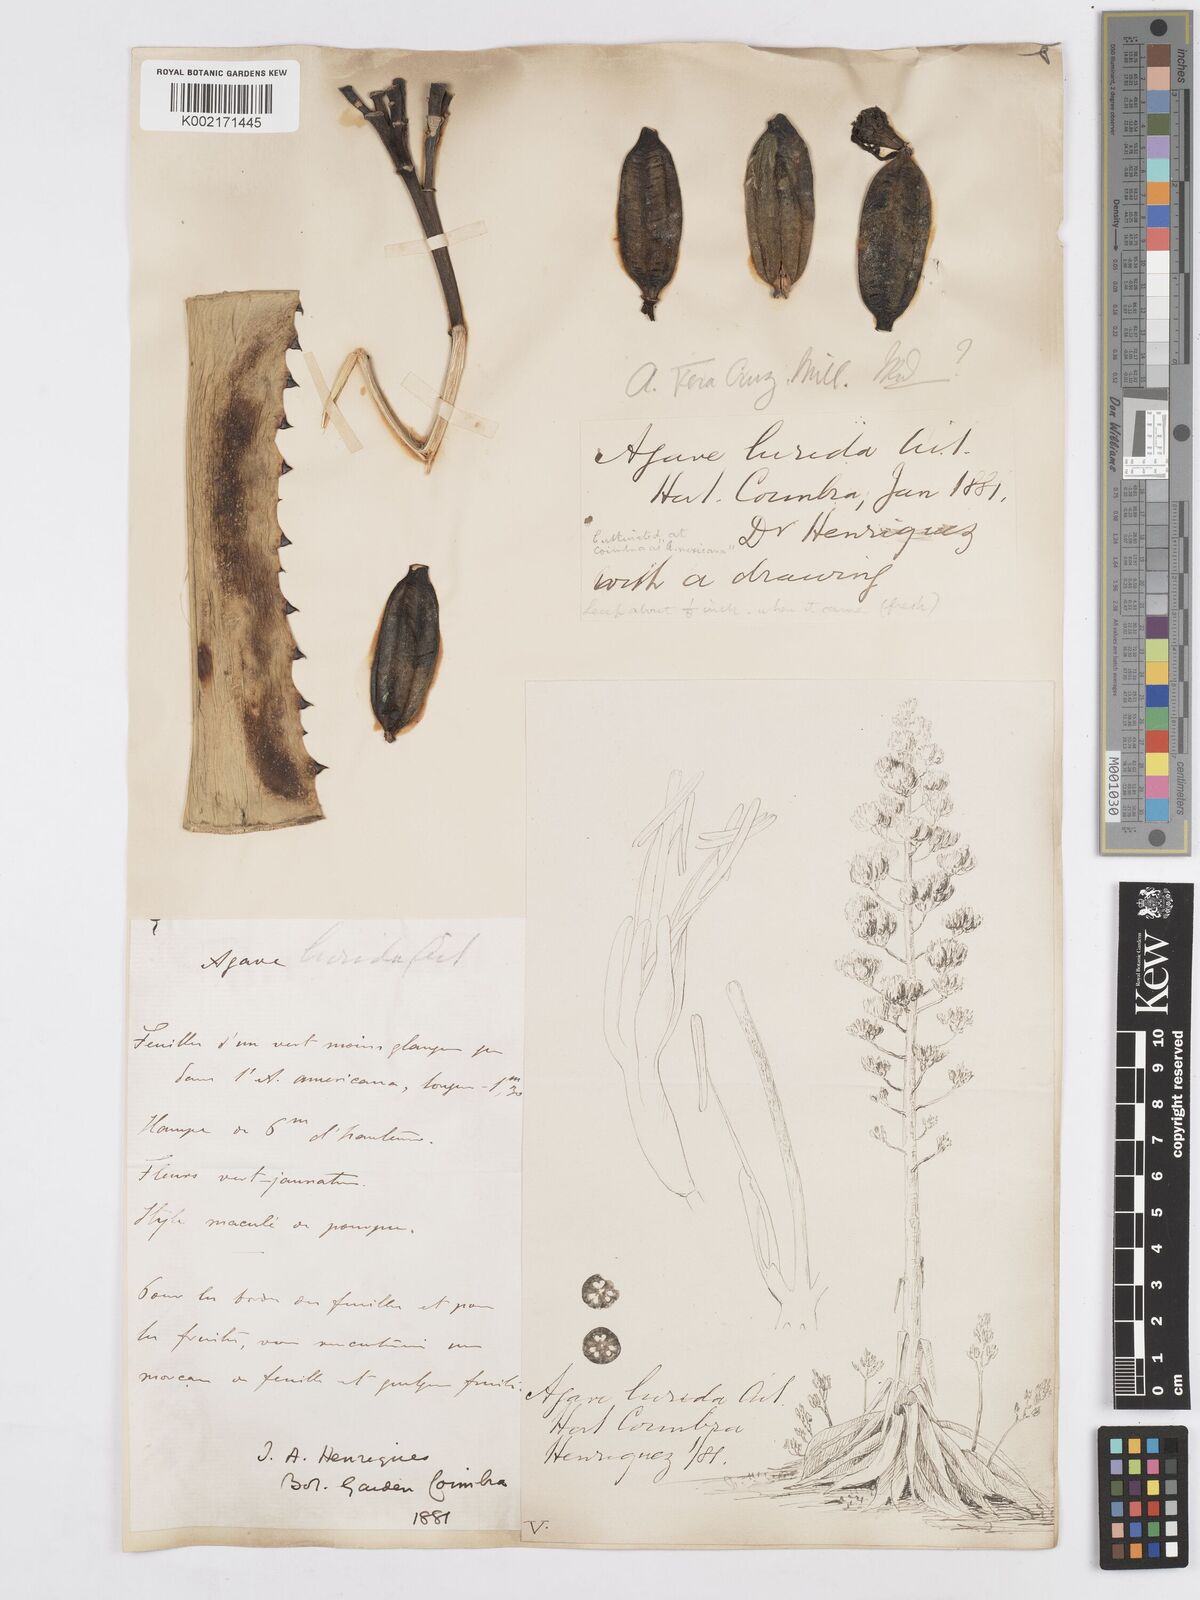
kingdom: Plantae
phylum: Tracheophyta
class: Liliopsida
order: Asparagales
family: Asparagaceae
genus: Agave
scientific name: Agave vera-cruz
